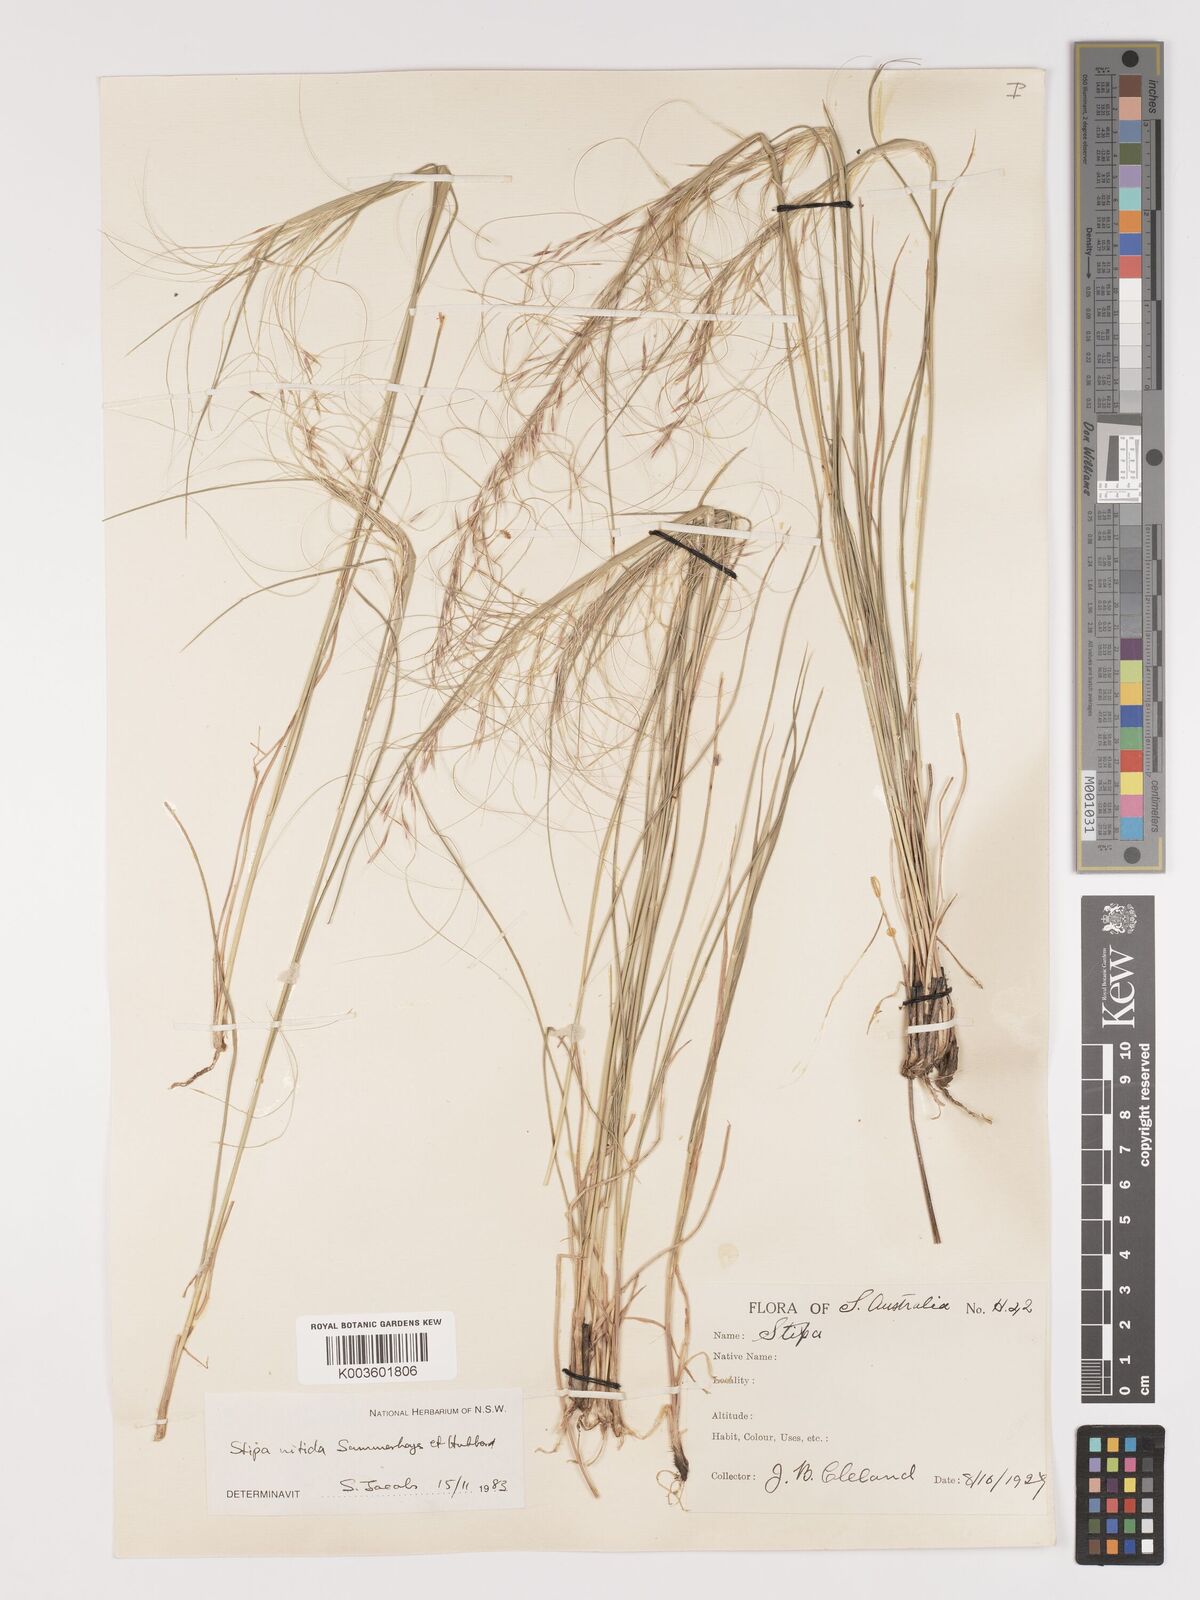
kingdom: Plantae
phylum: Tracheophyta
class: Liliopsida
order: Poales
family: Poaceae
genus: Austrostipa
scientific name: Austrostipa nitida
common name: Balcarra grass
